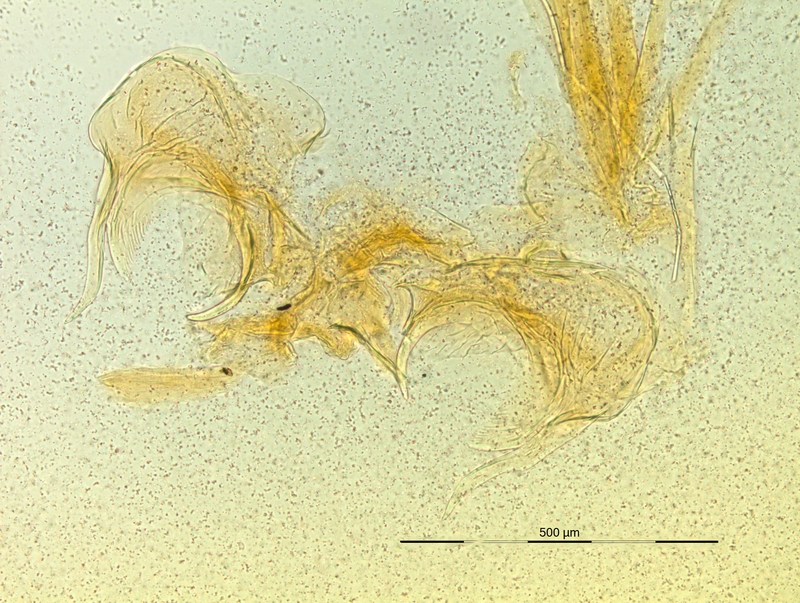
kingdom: Animalia
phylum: Arthropoda
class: Diplopoda
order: Chordeumatida
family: Craspedosomatidae
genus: Macheiriophoron
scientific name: Macheiriophoron wehranum
